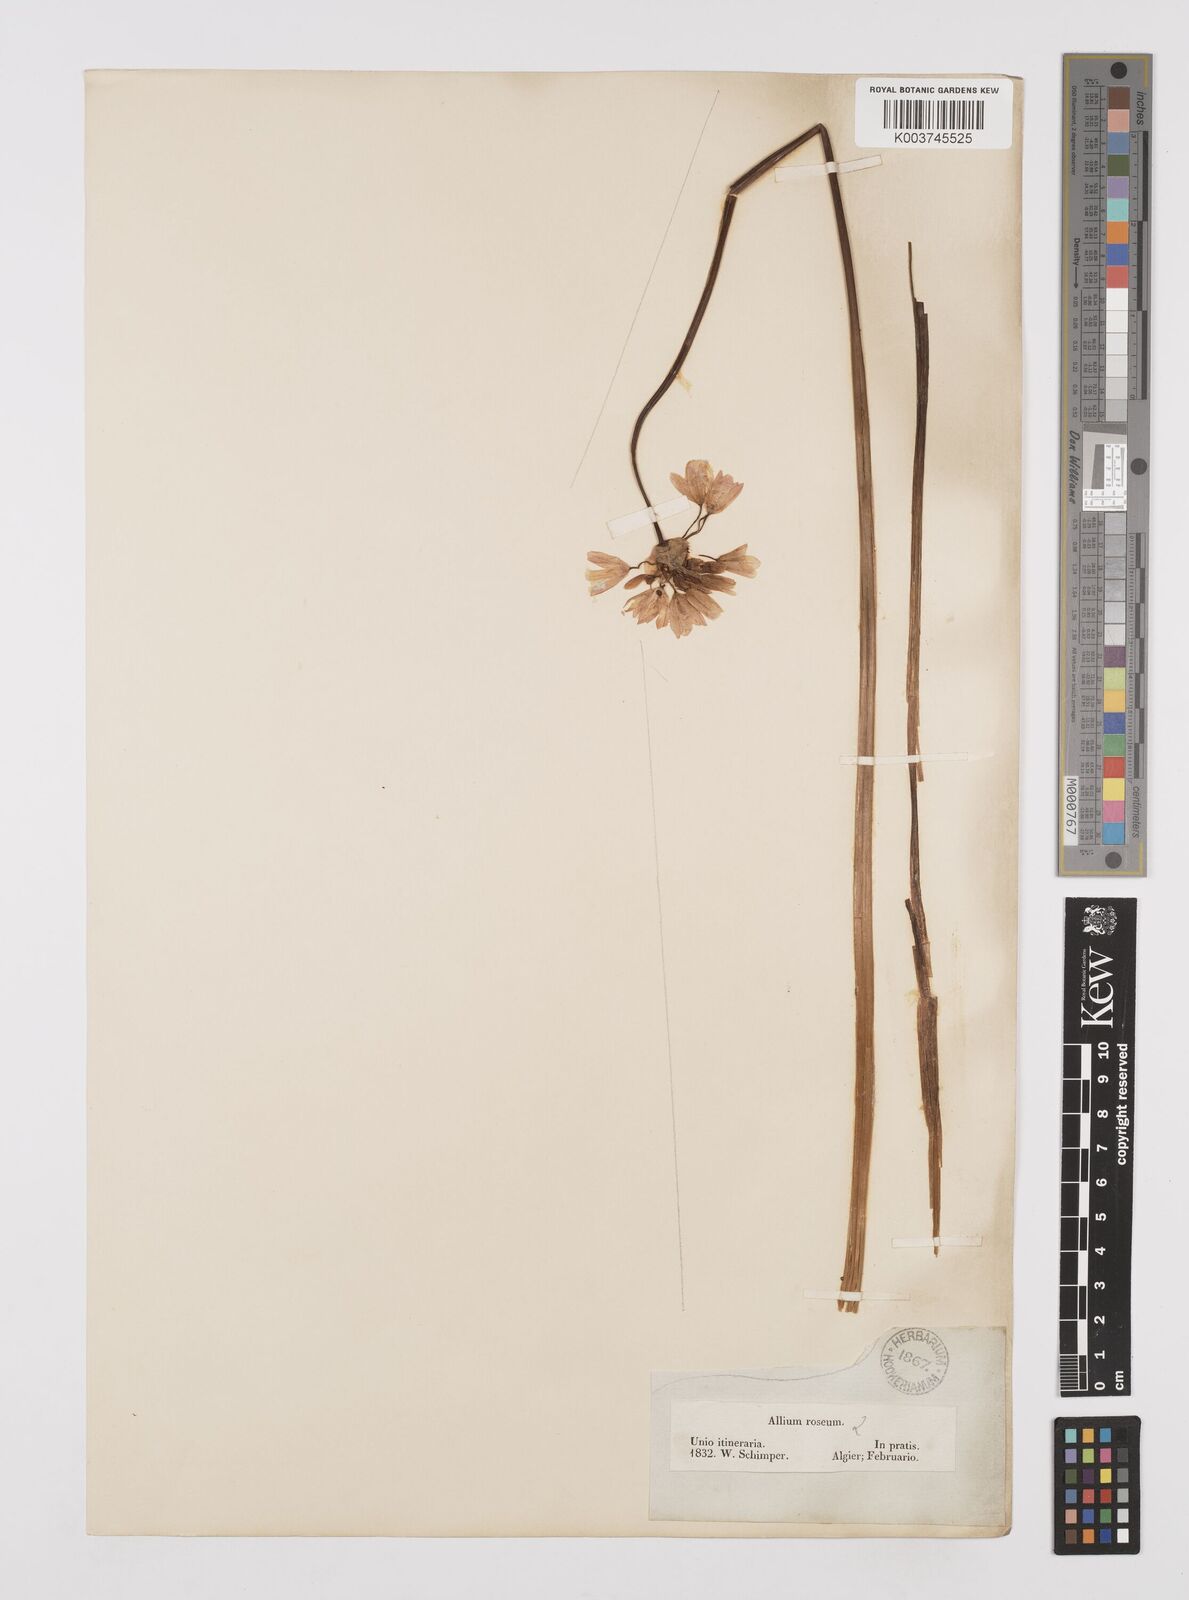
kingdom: Plantae
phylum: Tracheophyta
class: Liliopsida
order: Asparagales
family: Amaryllidaceae
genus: Allium
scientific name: Allium roseum
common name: Rosy garlic
